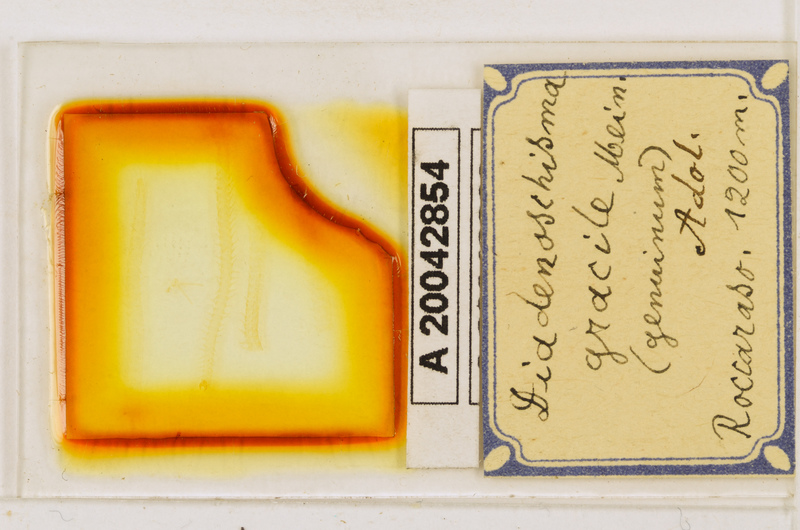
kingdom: Animalia
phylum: Arthropoda
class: Chilopoda
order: Geophilomorpha
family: Himantariidae
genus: Stigmatogaster
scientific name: Stigmatogaster
